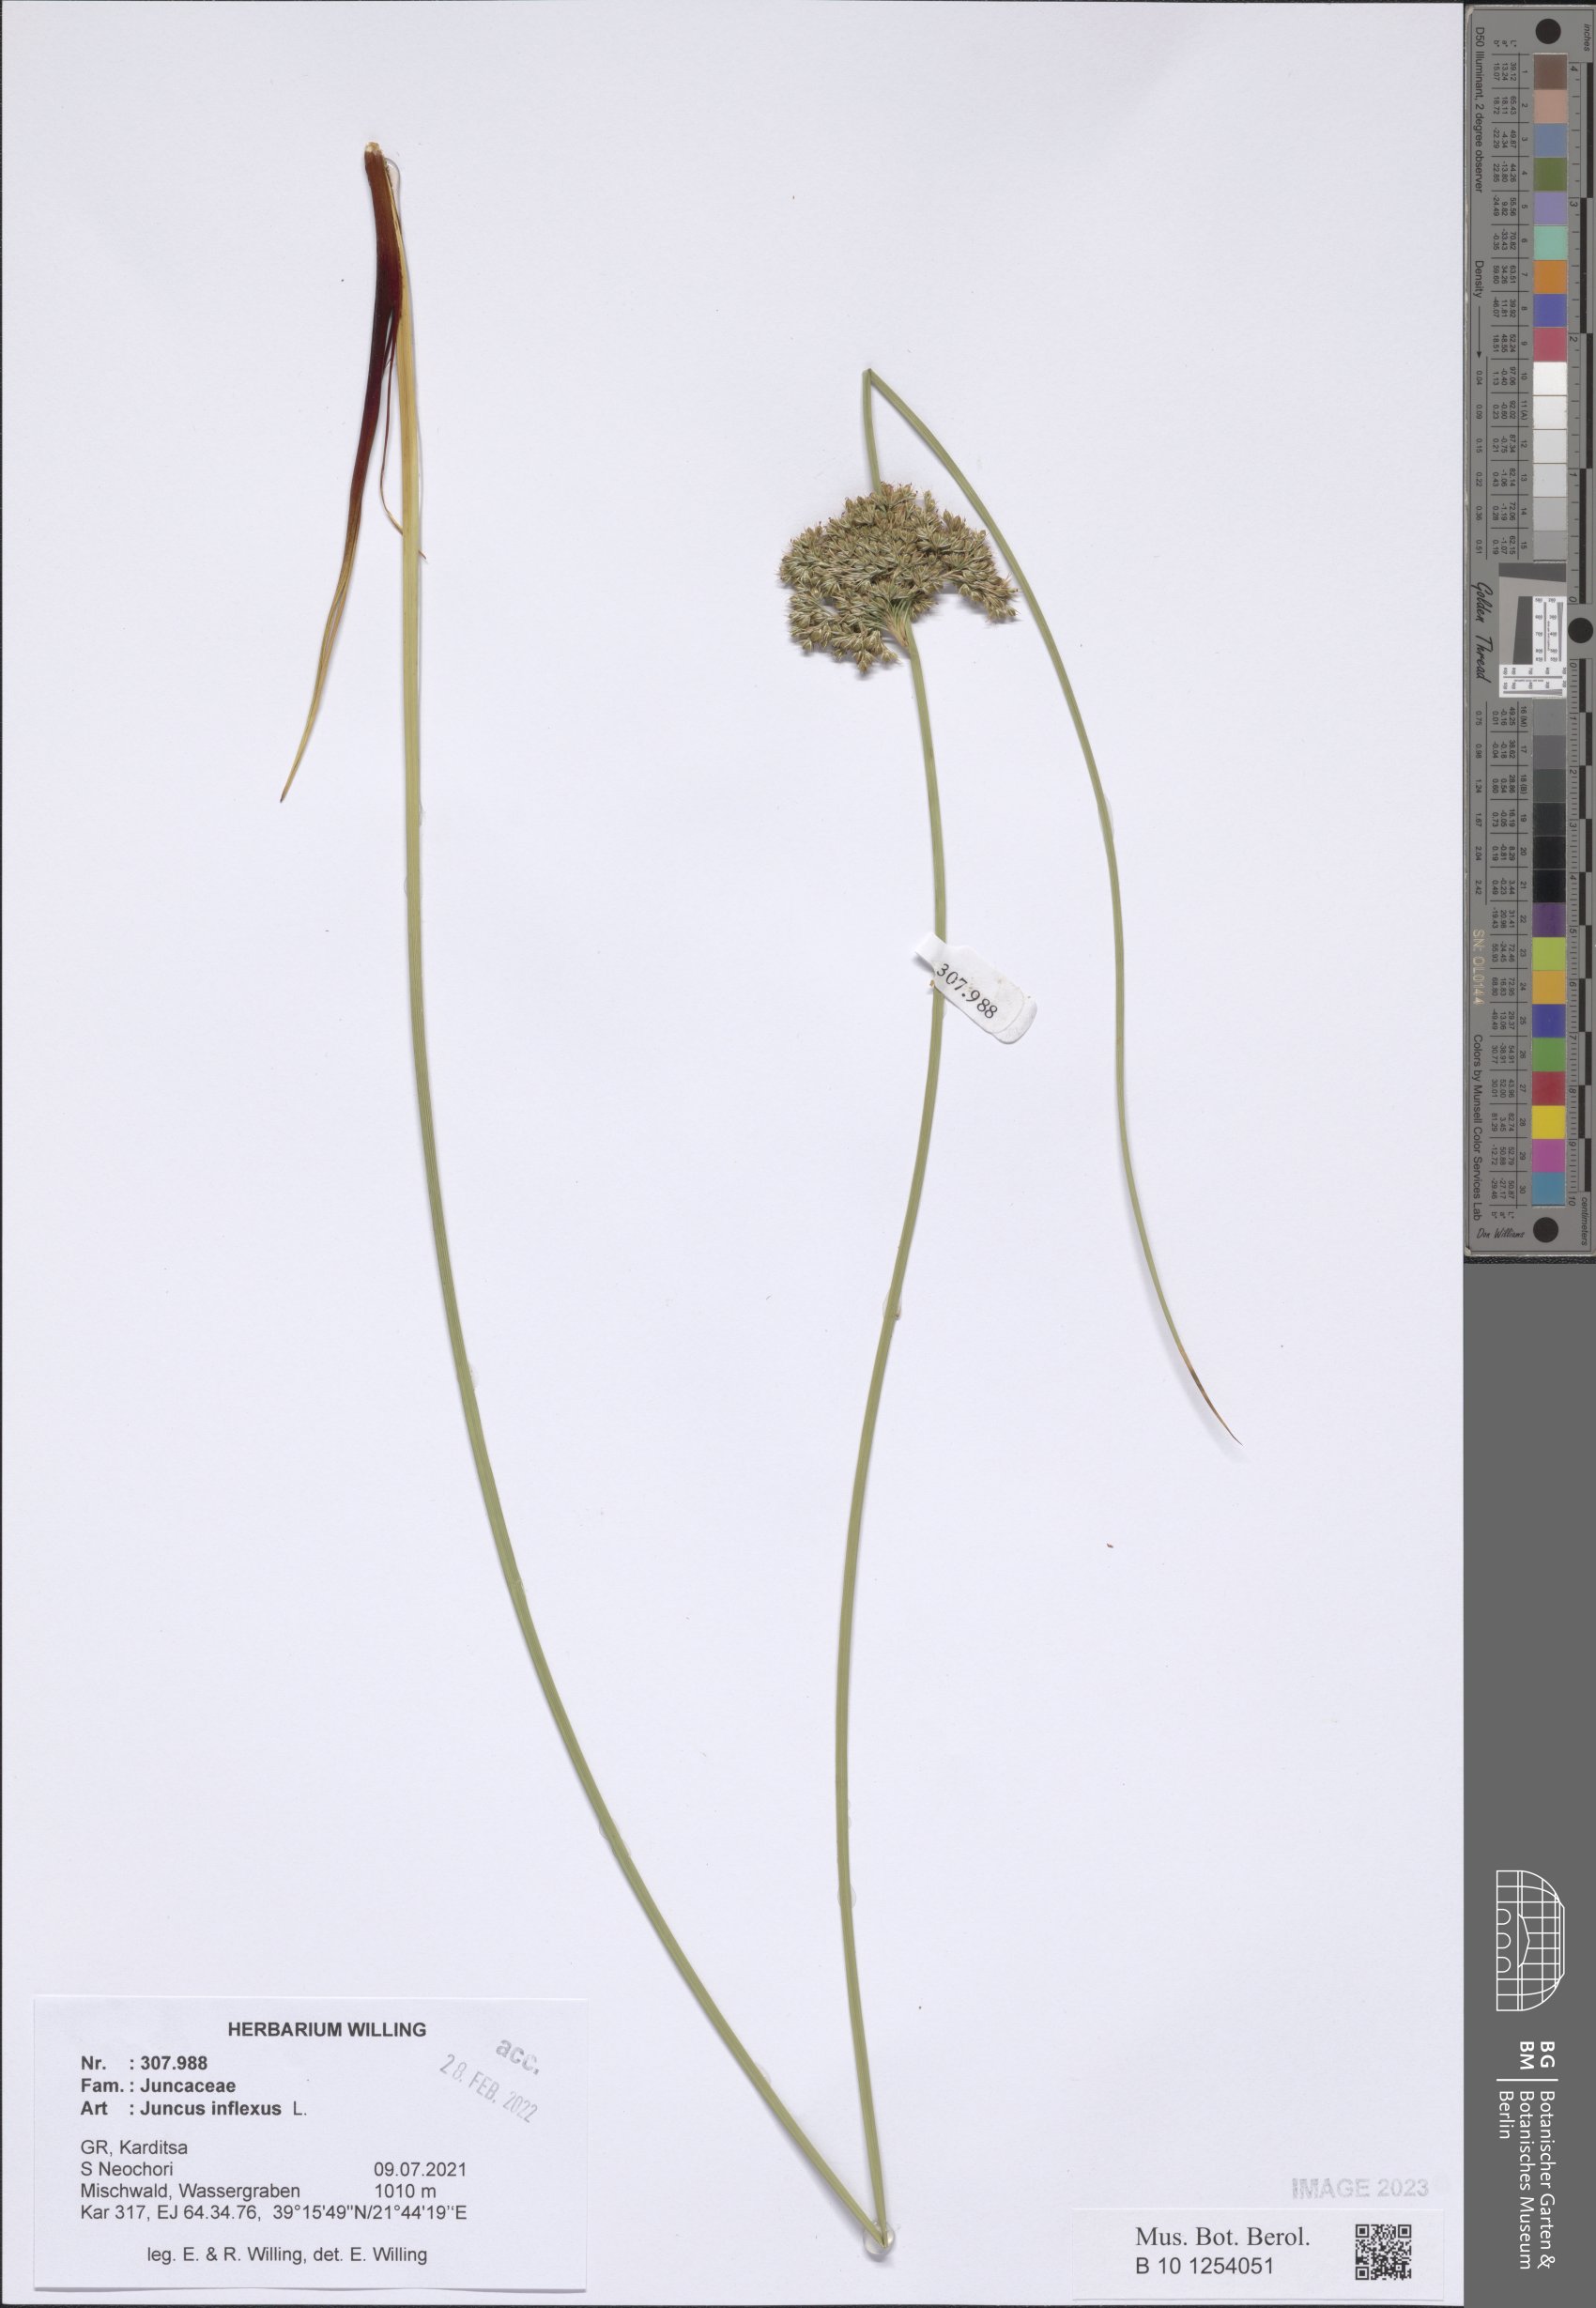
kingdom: Plantae
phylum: Tracheophyta
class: Liliopsida
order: Poales
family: Juncaceae
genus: Juncus
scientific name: Juncus inflexus
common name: Hard rush
